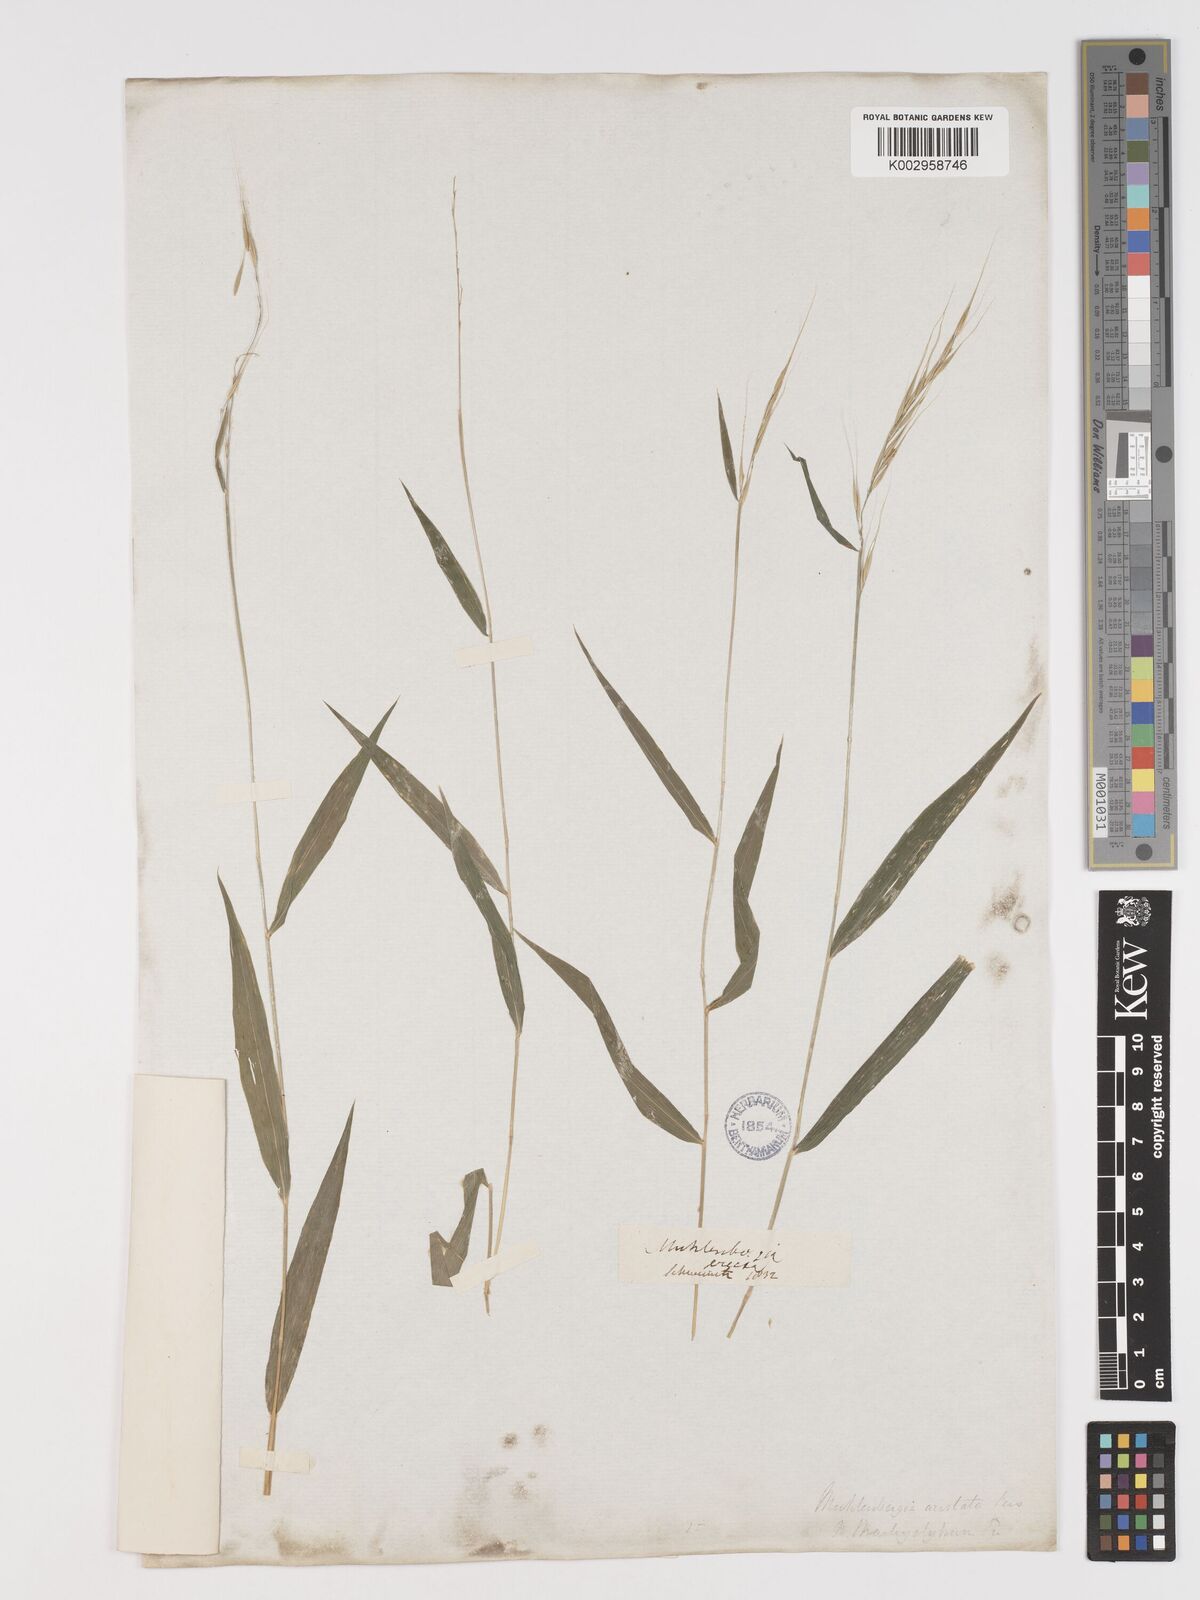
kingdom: Plantae
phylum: Tracheophyta
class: Liliopsida
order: Poales
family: Poaceae
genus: Brachyelytrum
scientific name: Brachyelytrum erectum
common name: Bearded shorthusk
